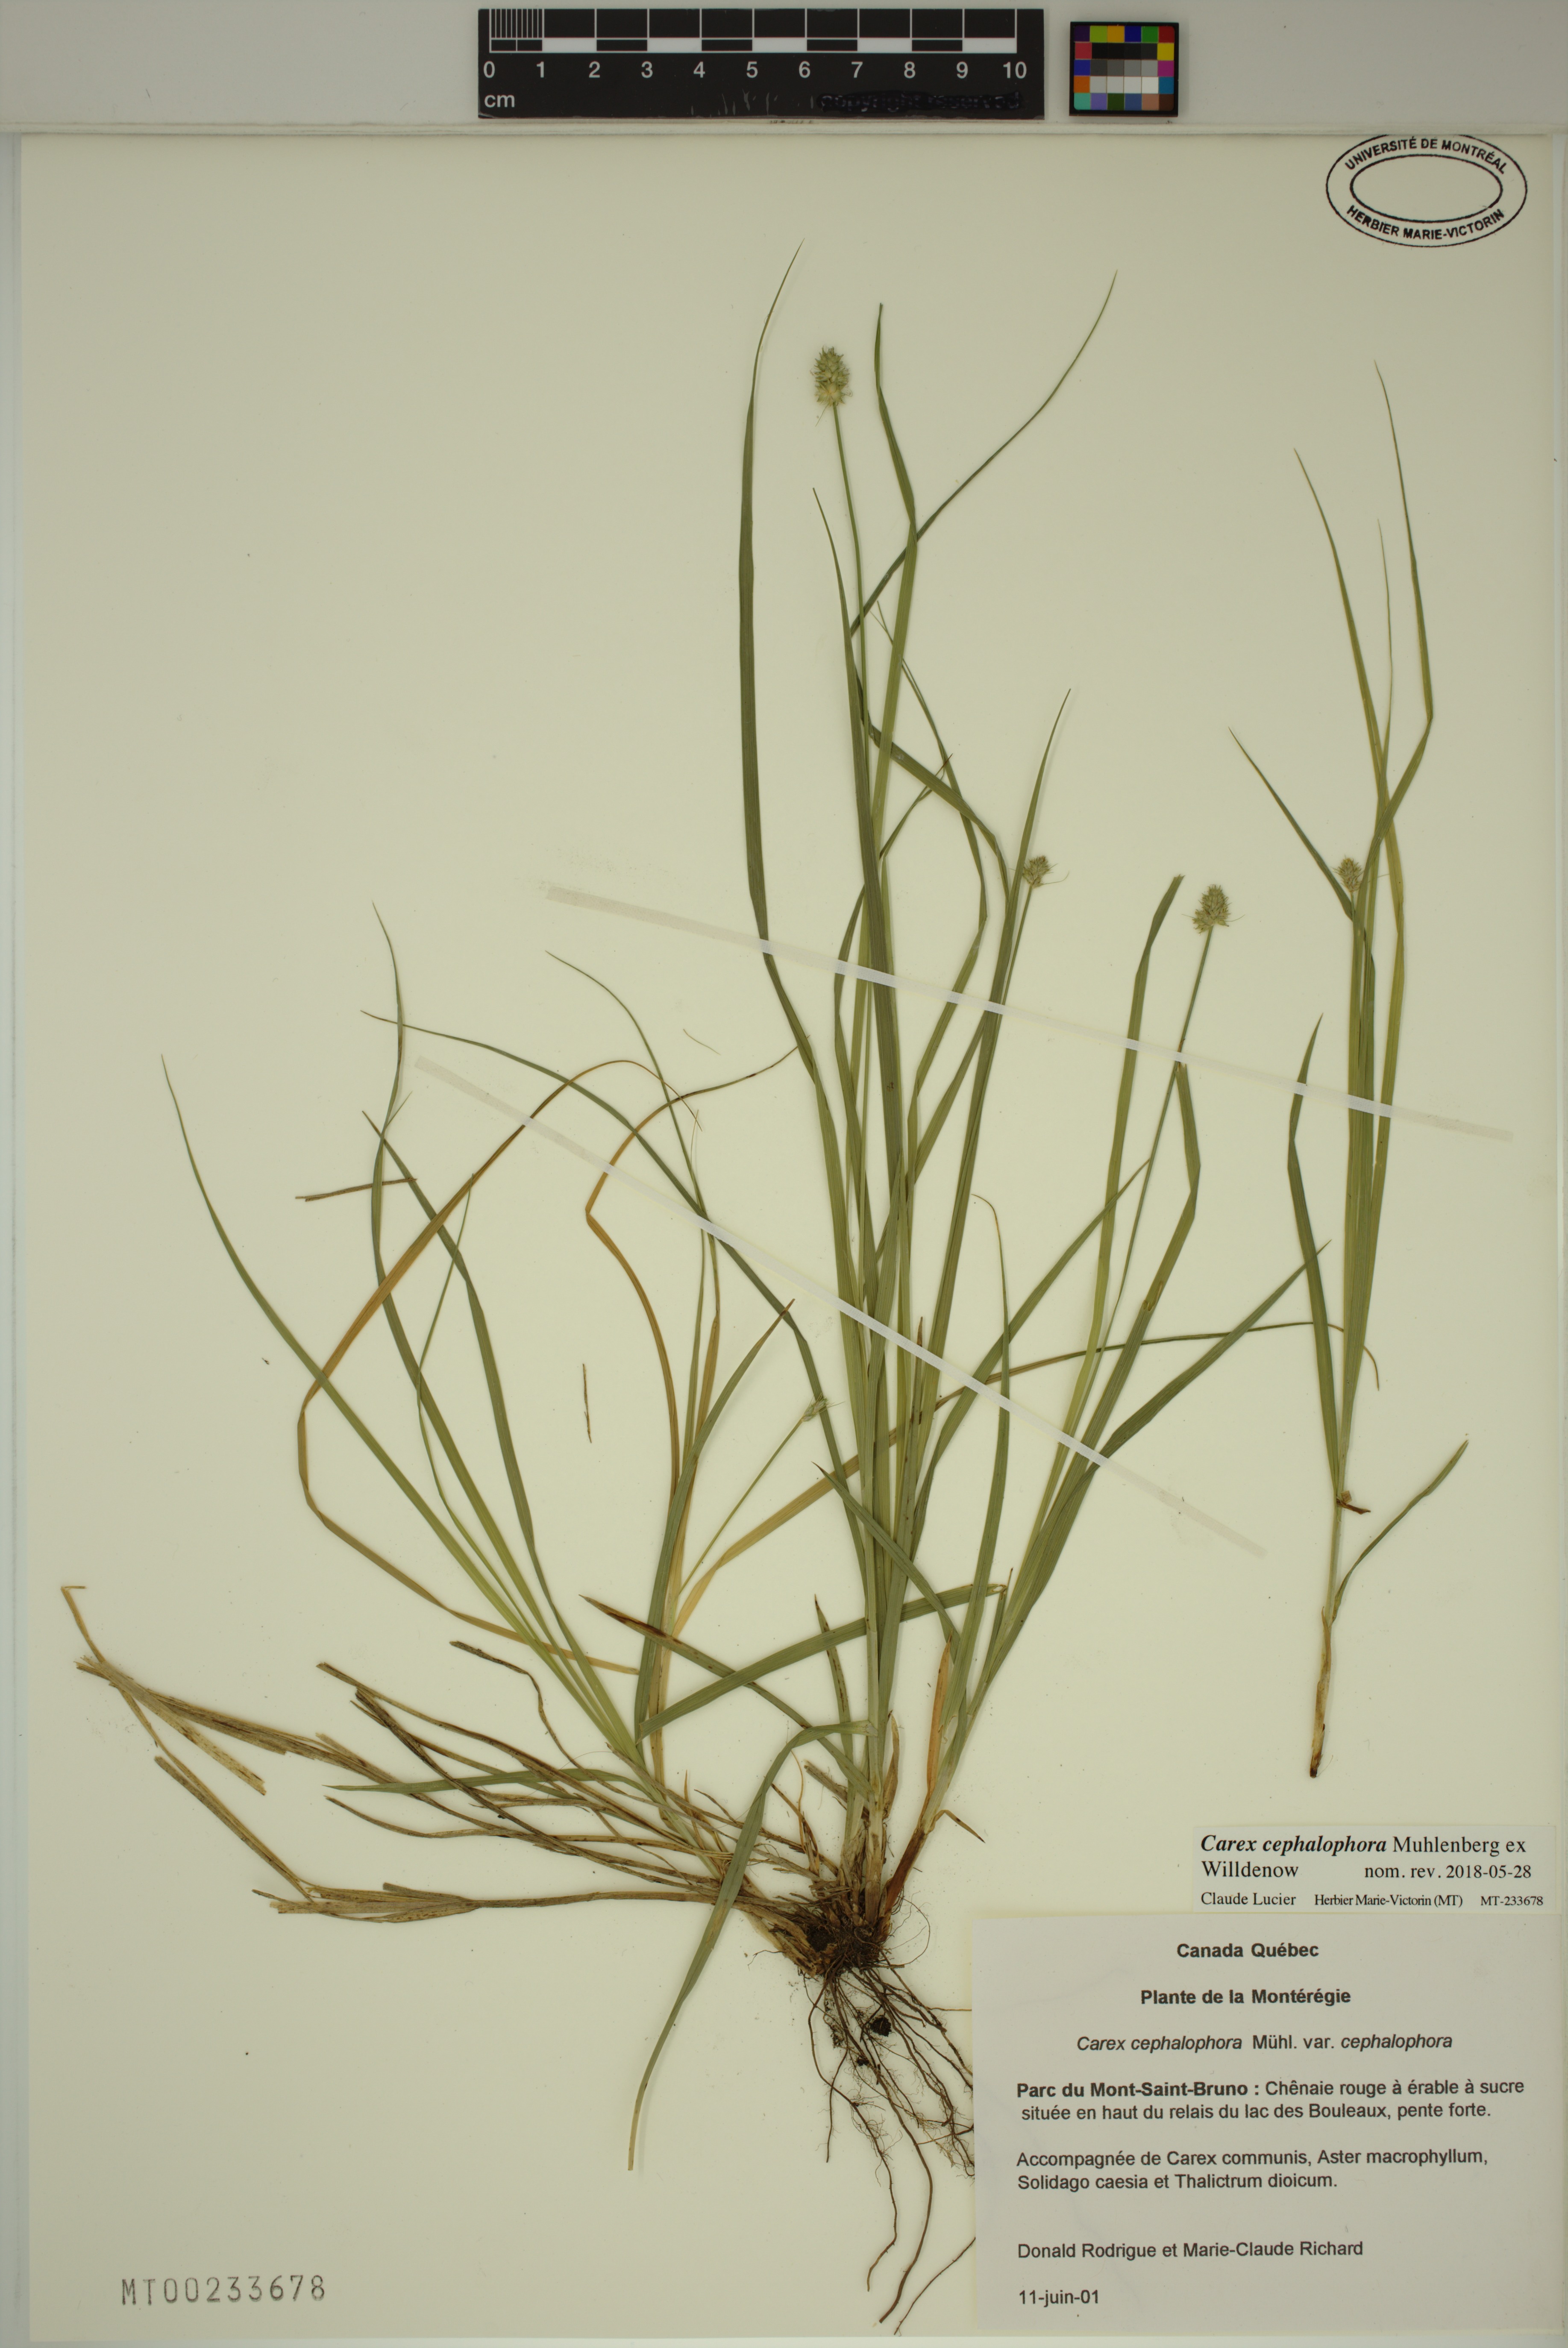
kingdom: Plantae
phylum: Tracheophyta
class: Liliopsida
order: Poales
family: Cyperaceae
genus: Carex
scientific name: Carex cephalophora
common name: Oval-headed sedge
